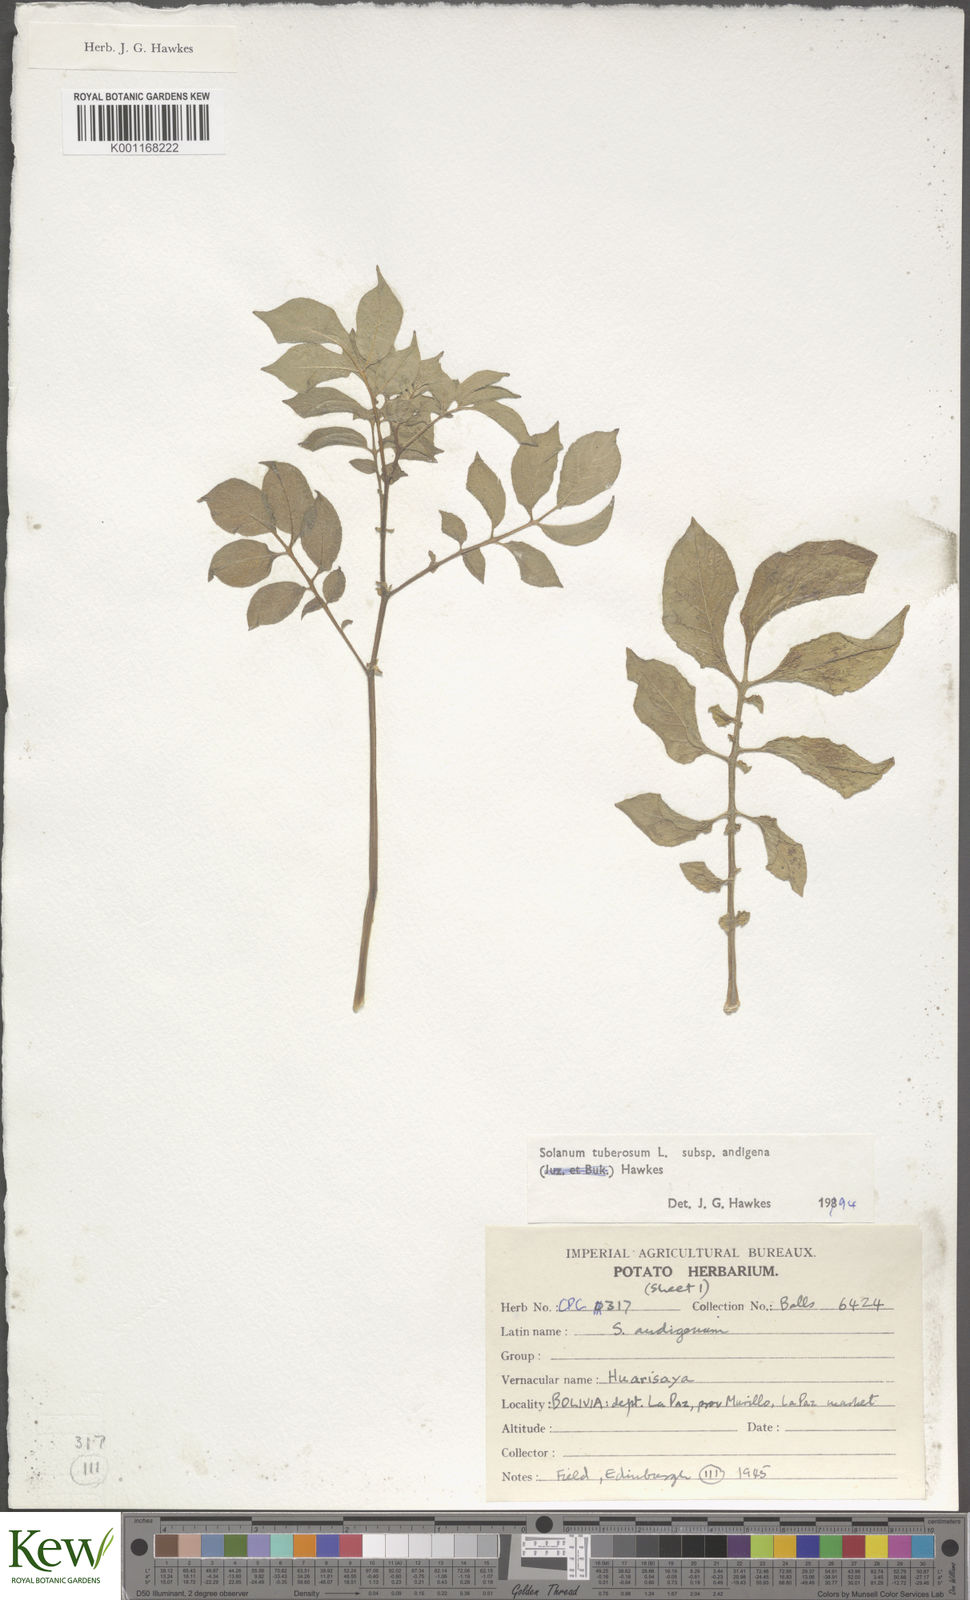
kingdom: Plantae
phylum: Tracheophyta
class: Magnoliopsida
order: Solanales
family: Solanaceae
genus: Solanum
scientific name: Solanum tuberosum
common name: Potato
